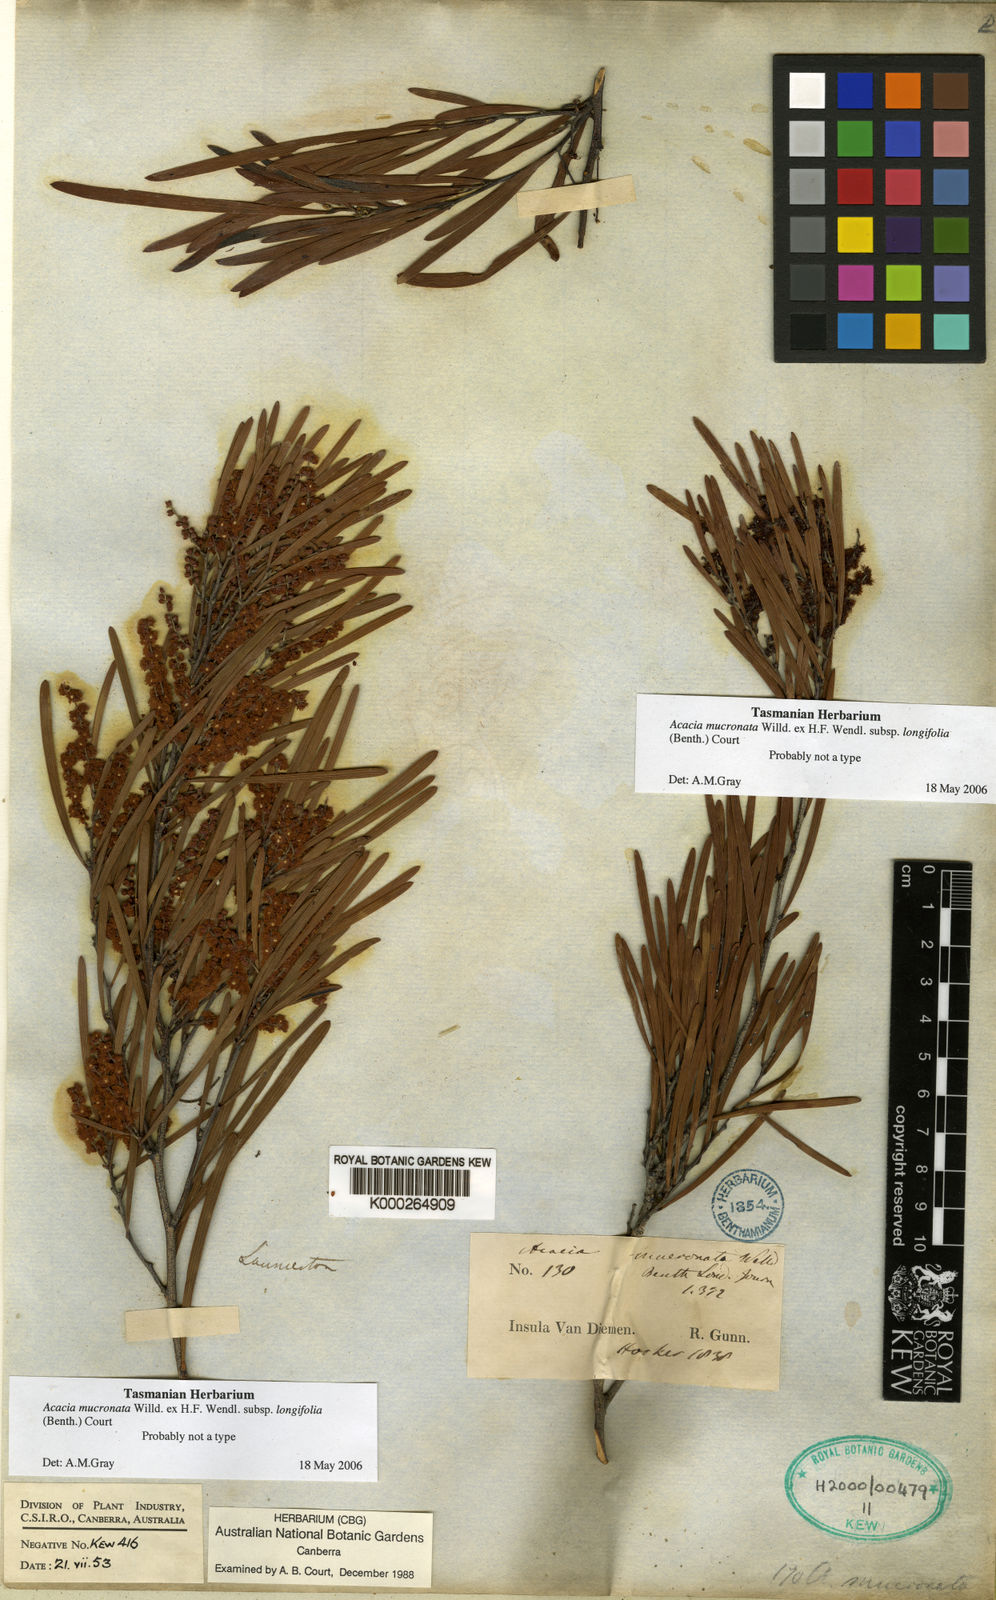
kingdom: Plantae
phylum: Tracheophyta
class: Magnoliopsida
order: Fabales
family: Fabaceae
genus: Acacia
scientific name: Acacia mucronata
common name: Variable sallow wattle
